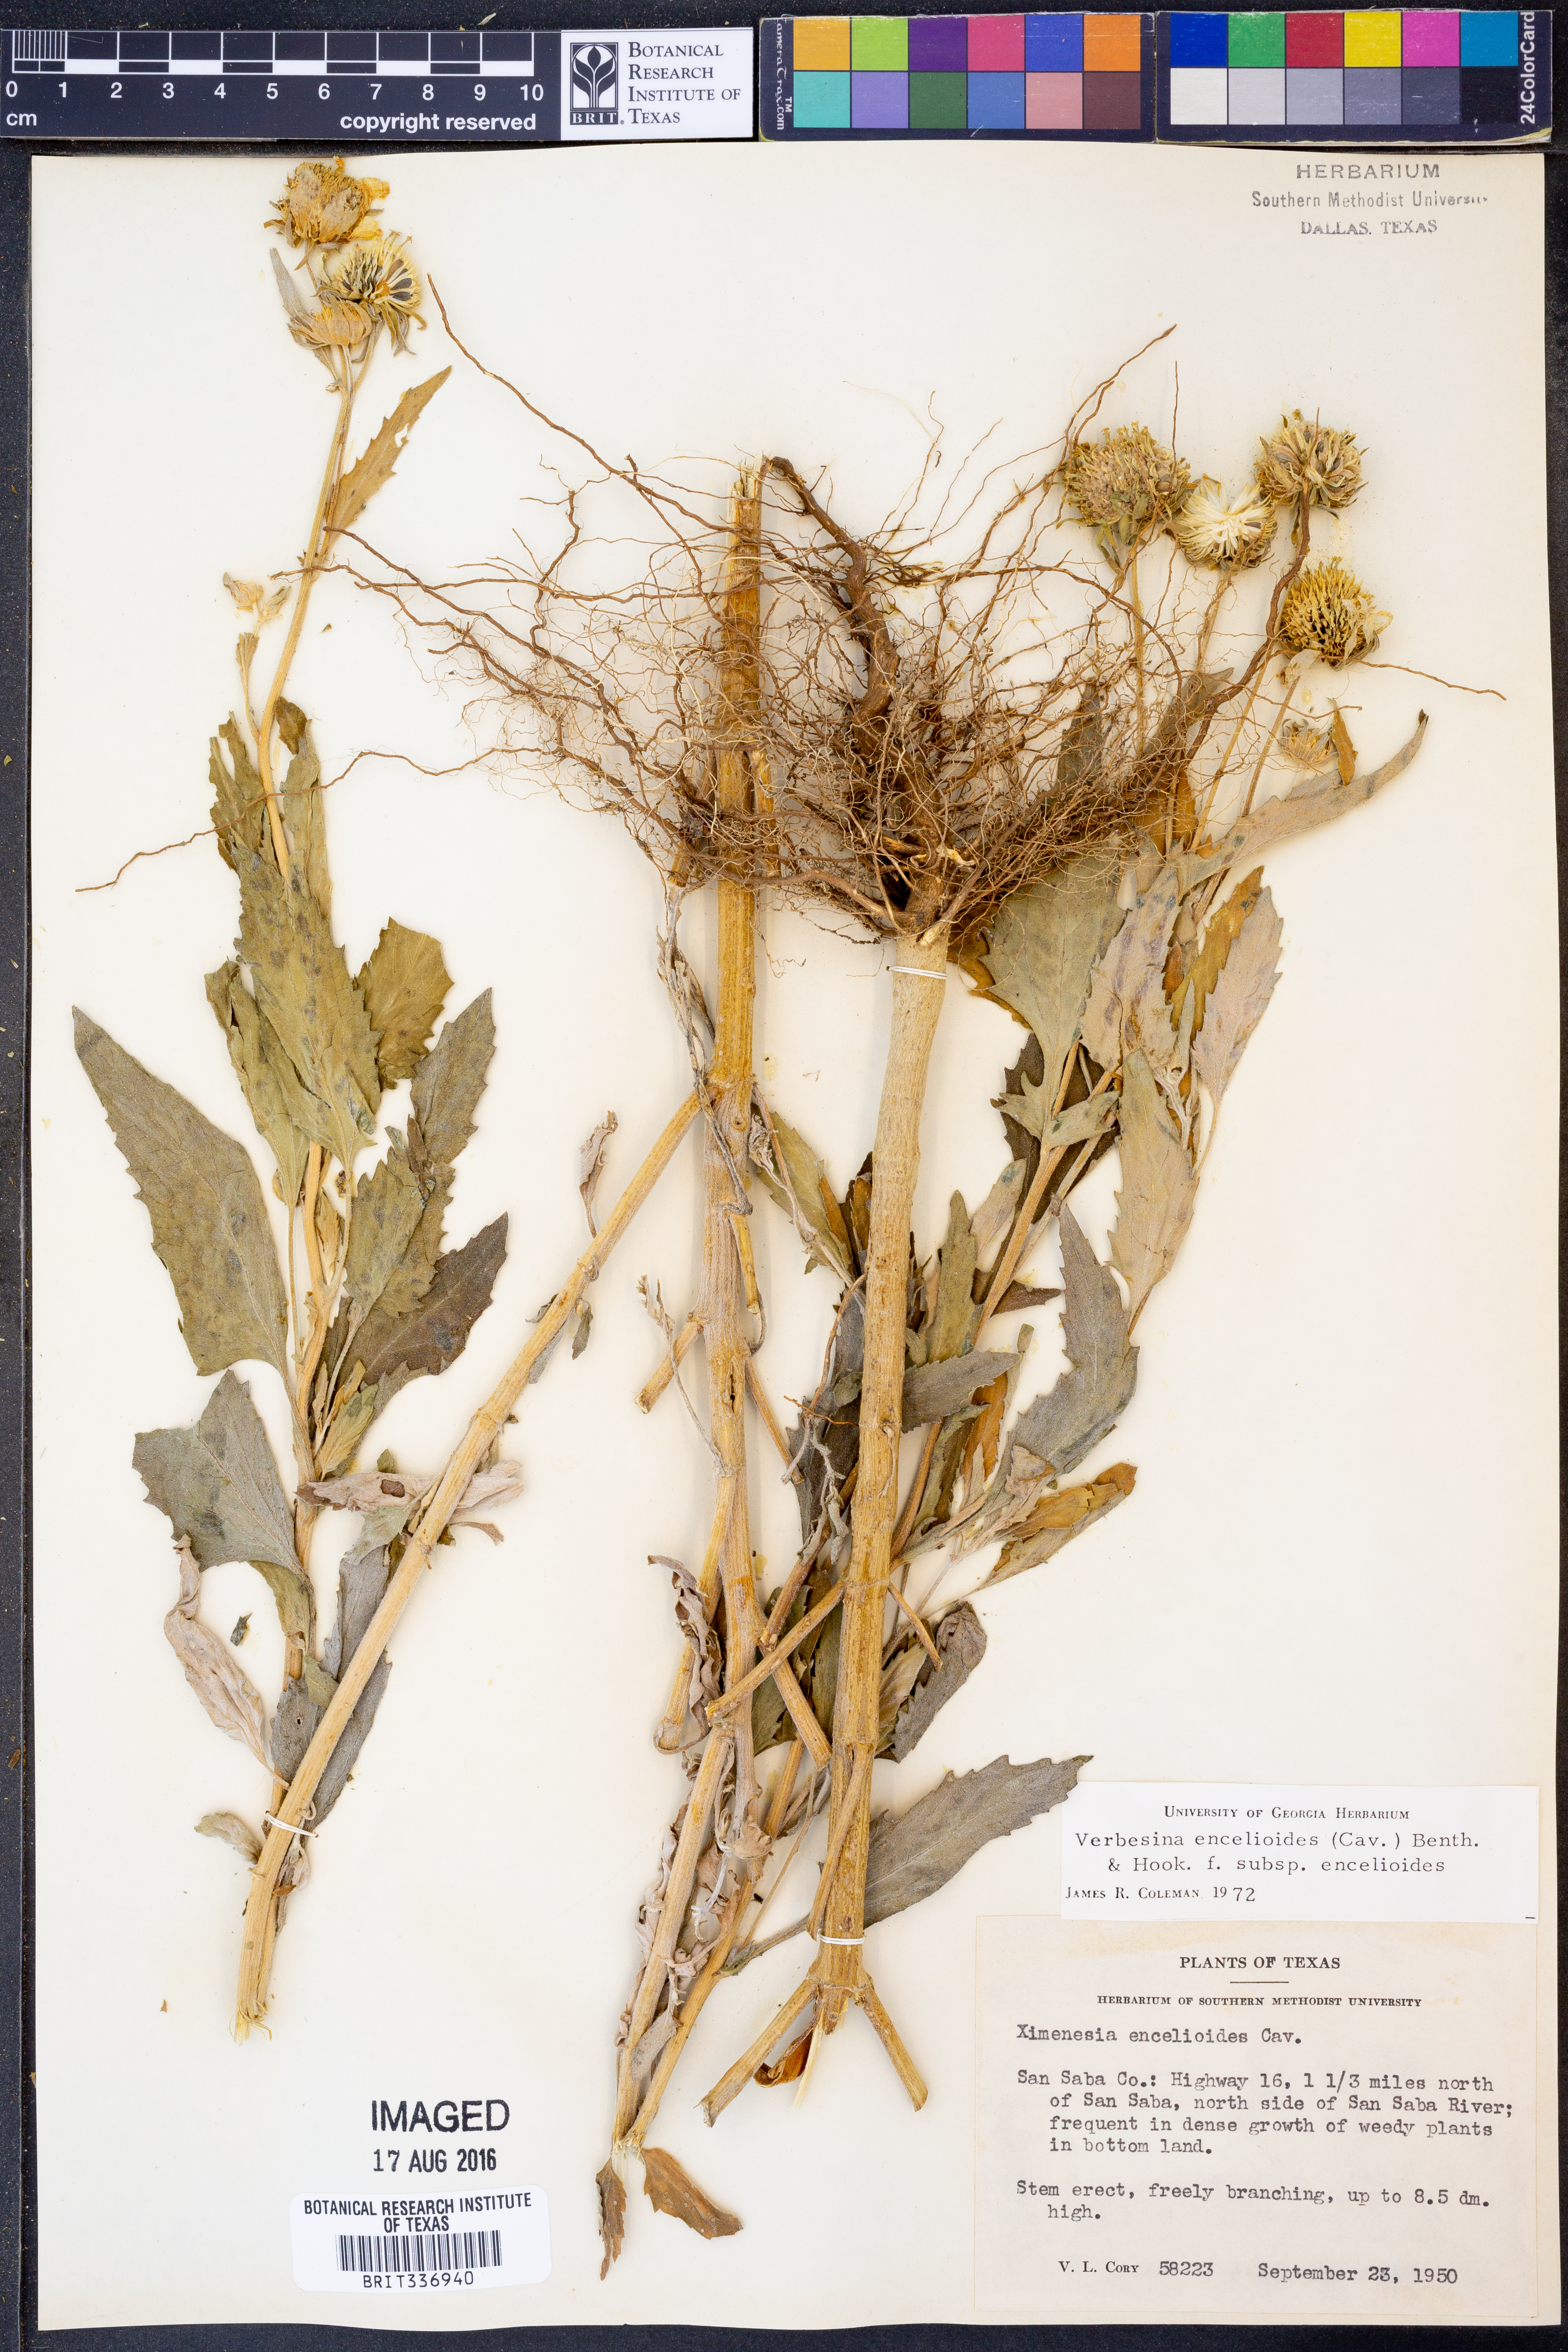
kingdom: Plantae
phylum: Tracheophyta
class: Magnoliopsida
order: Asterales
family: Asteraceae
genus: Verbesina
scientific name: Verbesina encelioides
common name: Golden crownbeard
